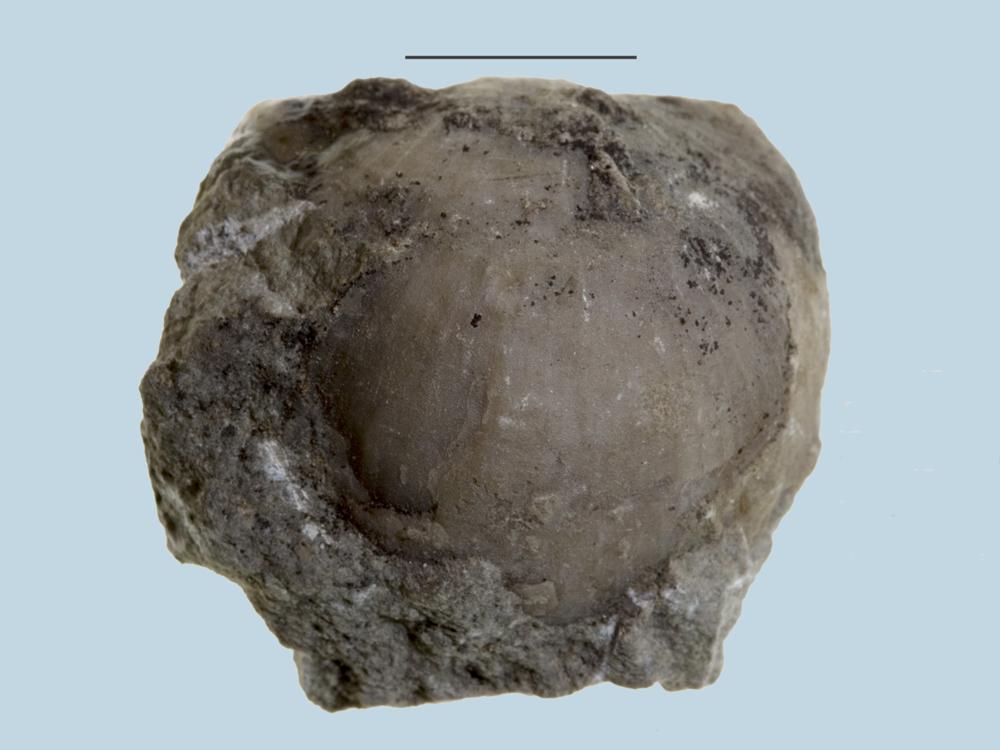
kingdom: Animalia
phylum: Brachiopoda
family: Strophomenidae
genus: Rafinesquina
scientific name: Rafinesquina
